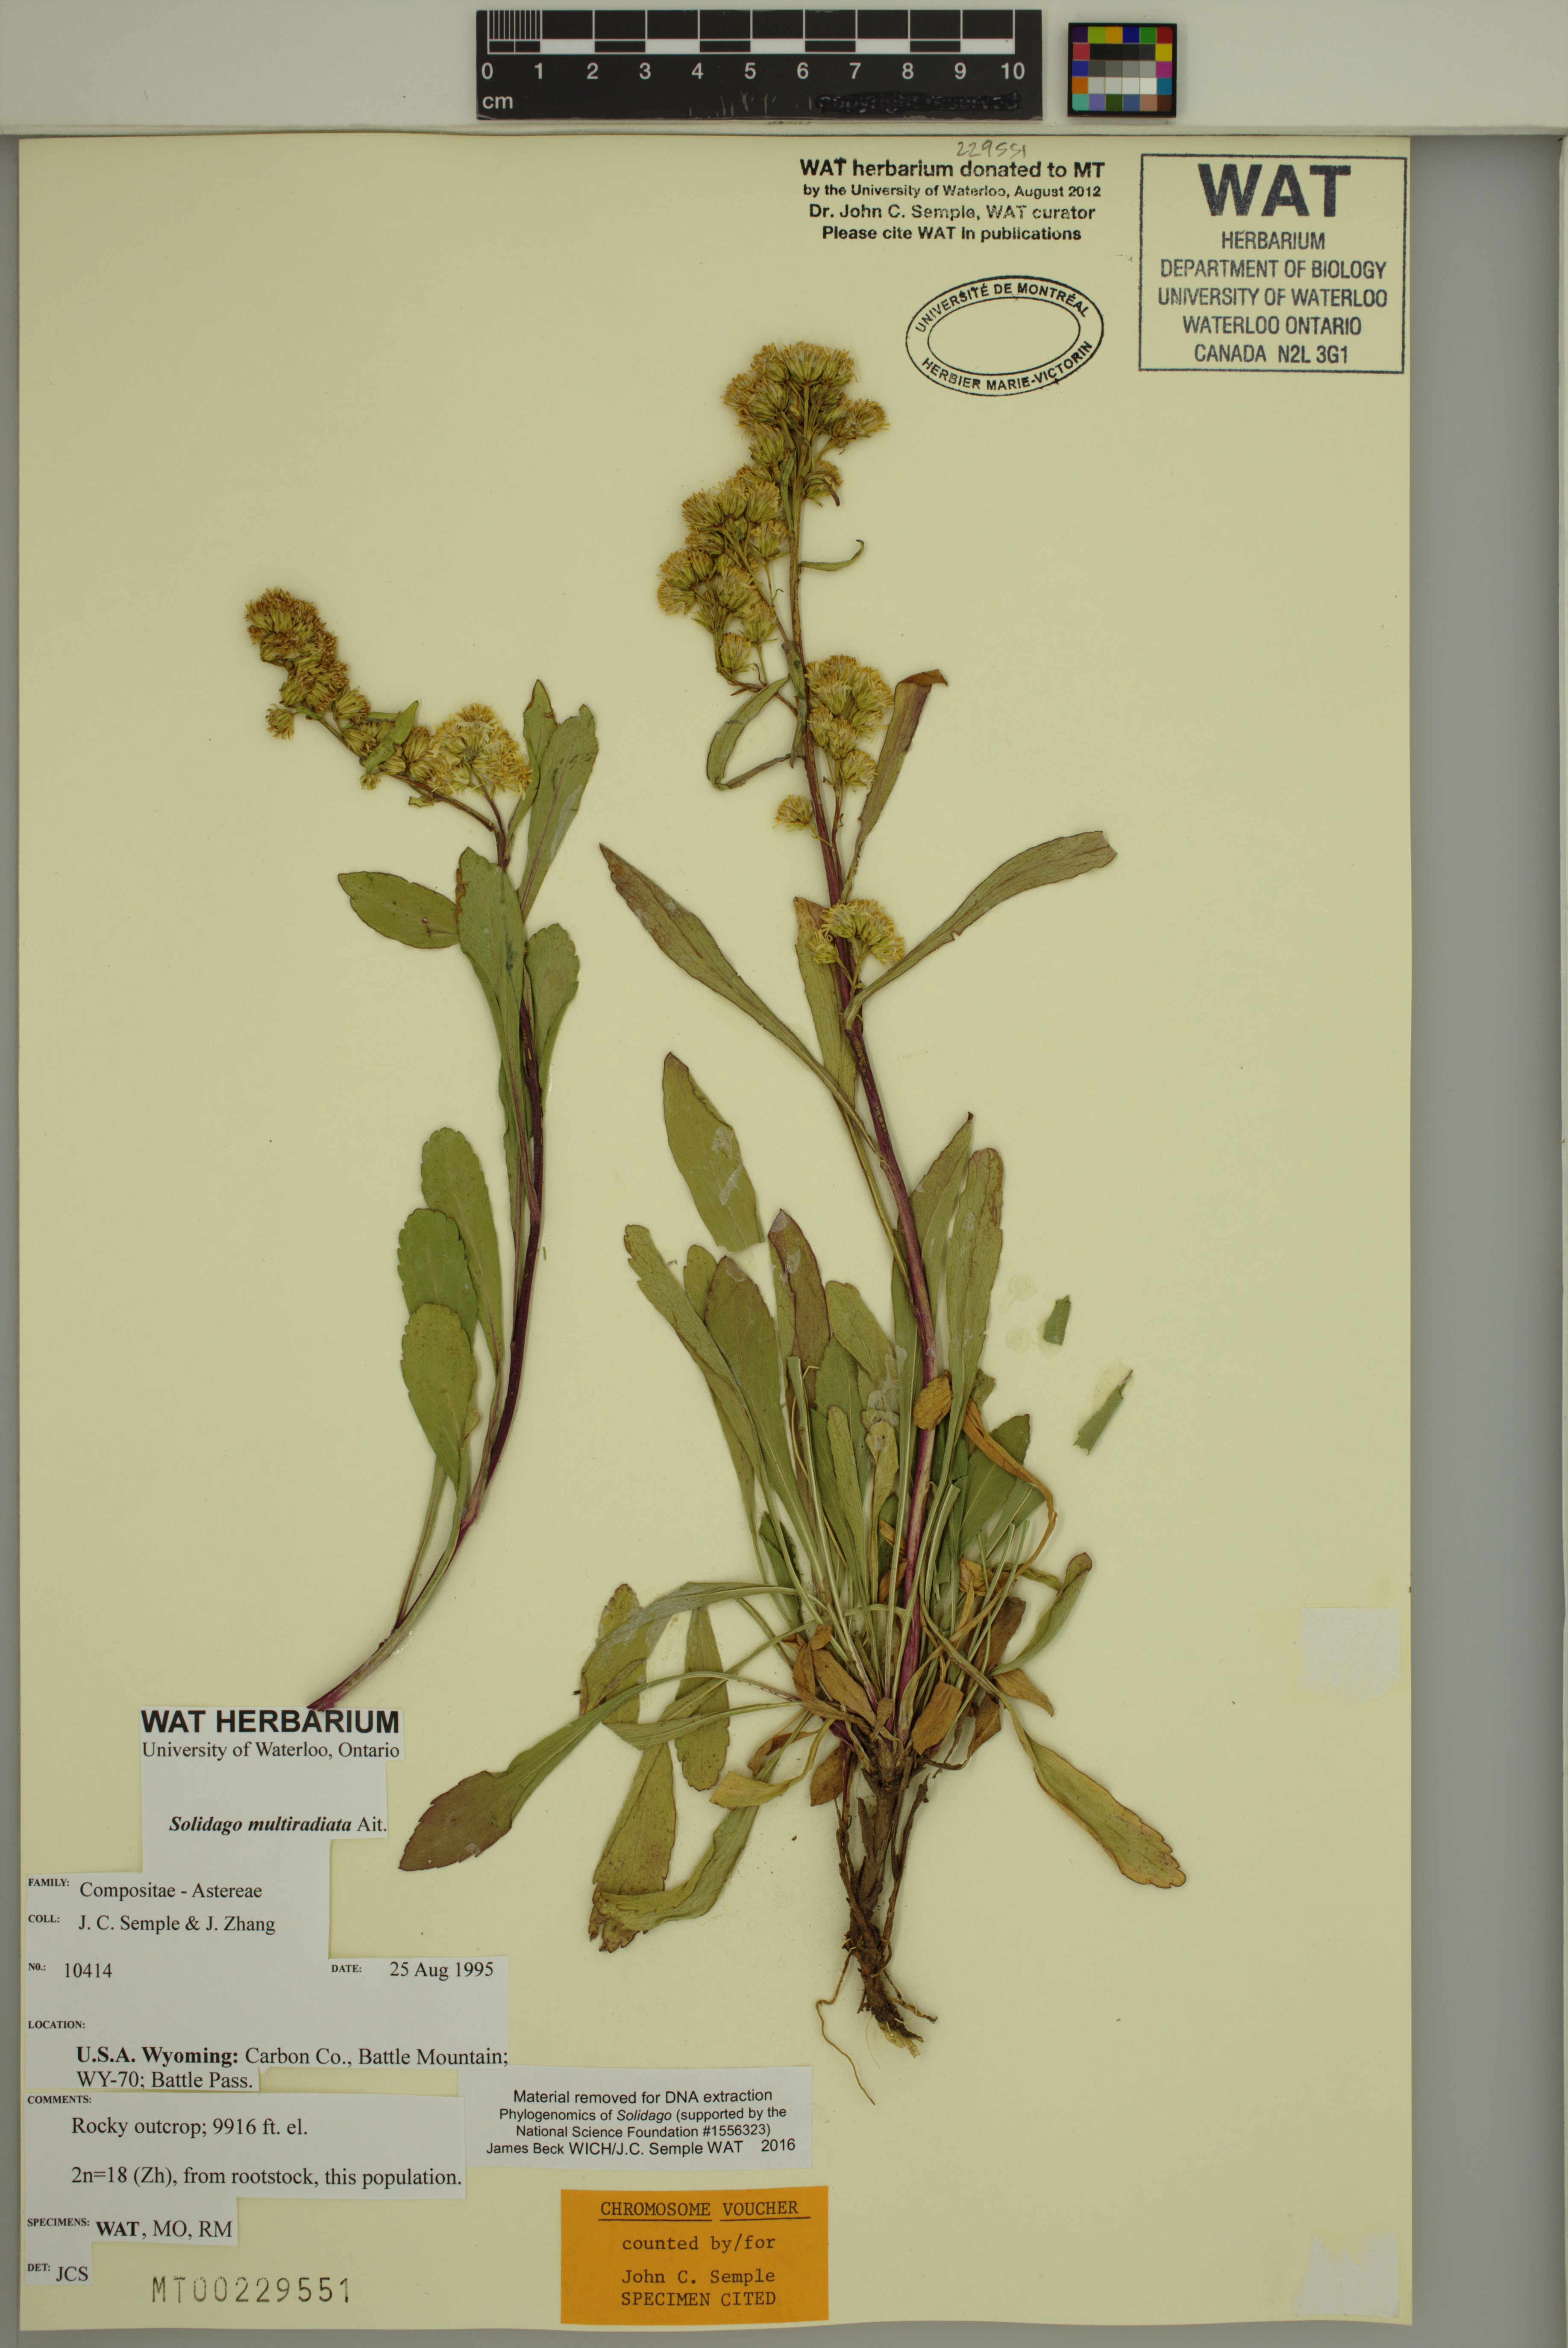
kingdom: Plantae
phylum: Tracheophyta
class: Magnoliopsida
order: Asterales
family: Asteraceae
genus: Solidago
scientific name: Solidago multiradiata
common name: Northern goldenrod
